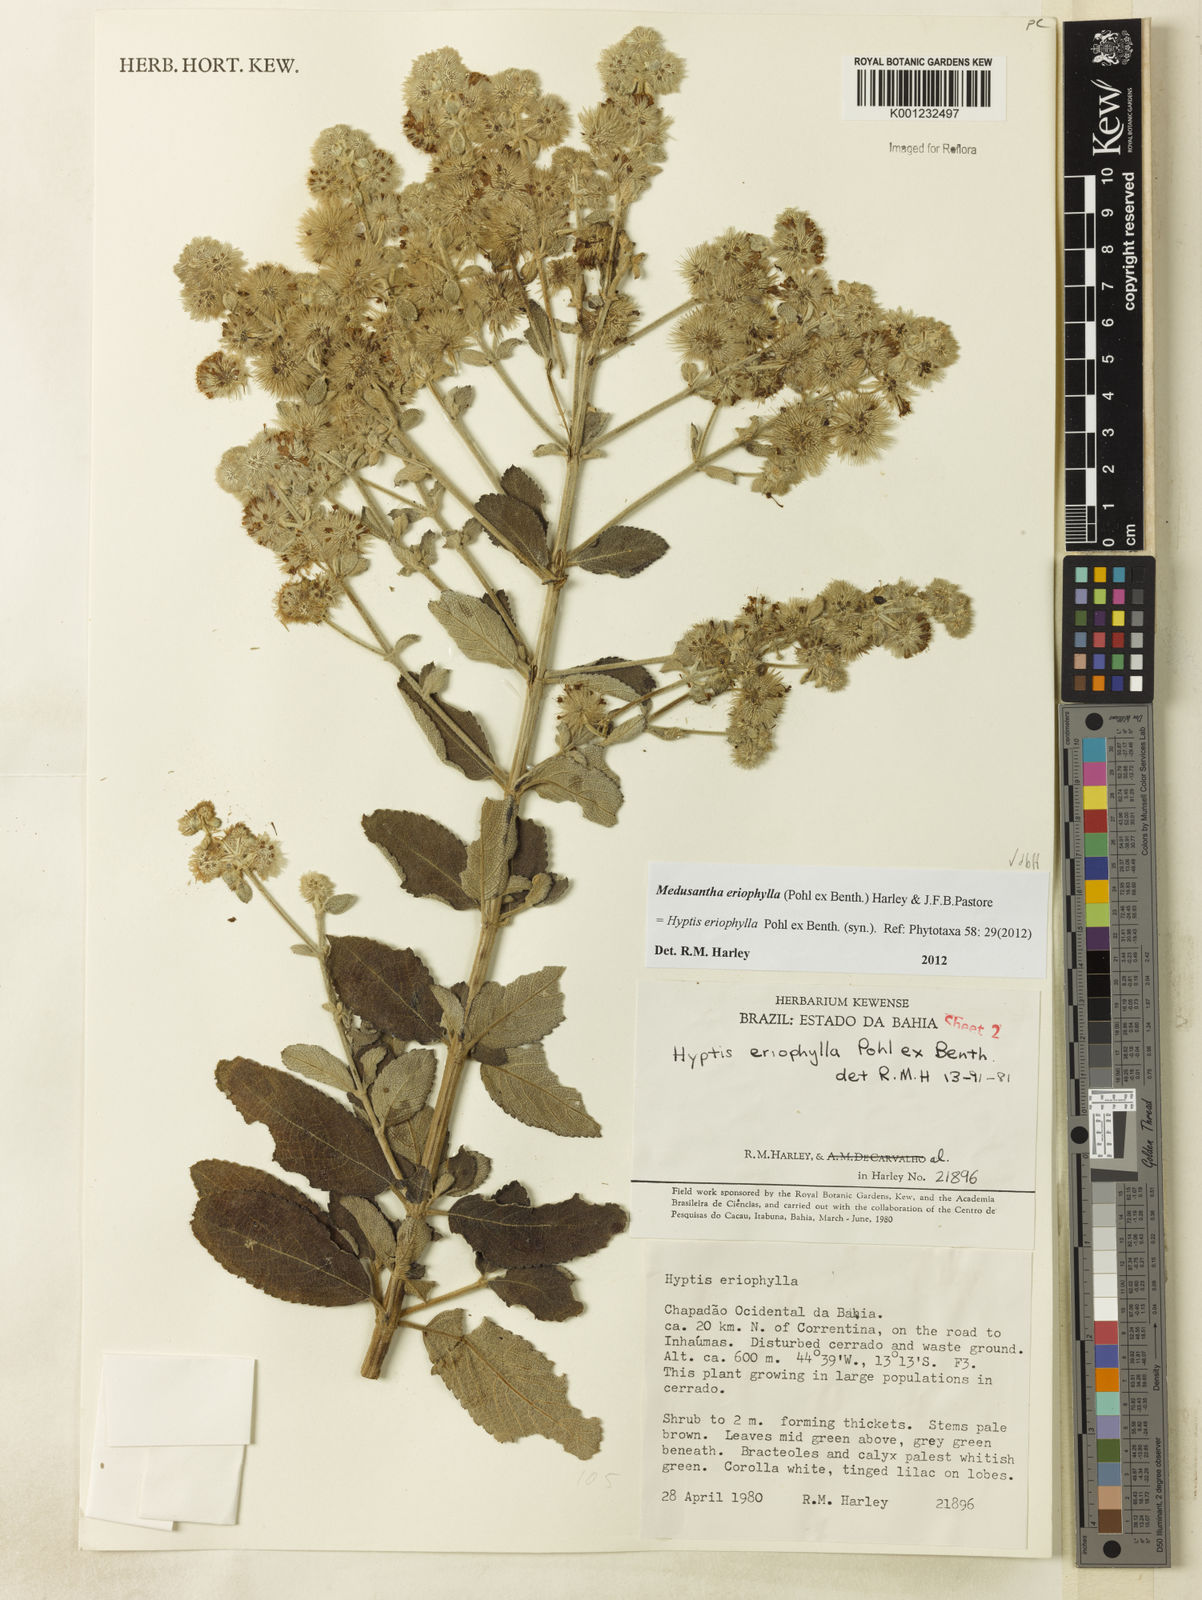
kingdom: Plantae
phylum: Tracheophyta
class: Magnoliopsida
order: Lamiales
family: Lamiaceae
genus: Medusantha
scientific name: Medusantha eriophylla
